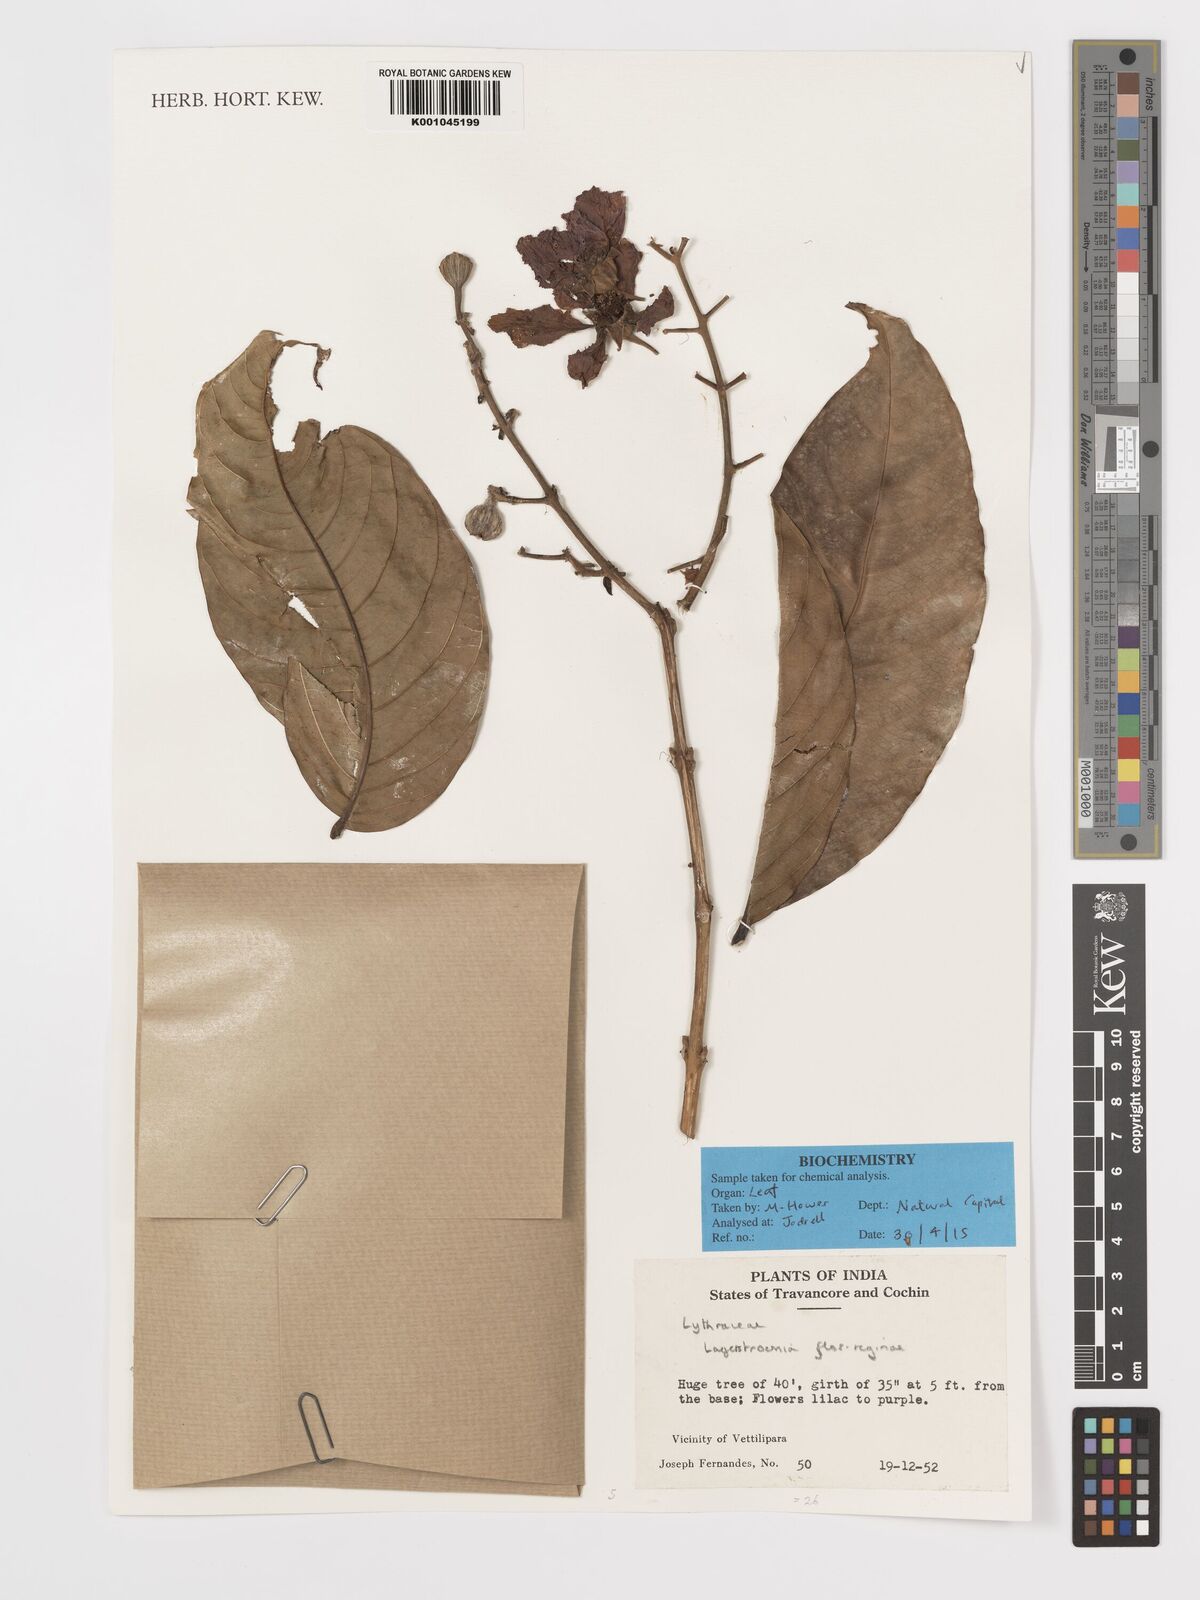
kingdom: Plantae
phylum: Tracheophyta
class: Magnoliopsida
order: Myrtales
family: Lythraceae
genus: Lagerstroemia
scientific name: Lagerstroemia speciosa
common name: Queen's crape-myrtle
